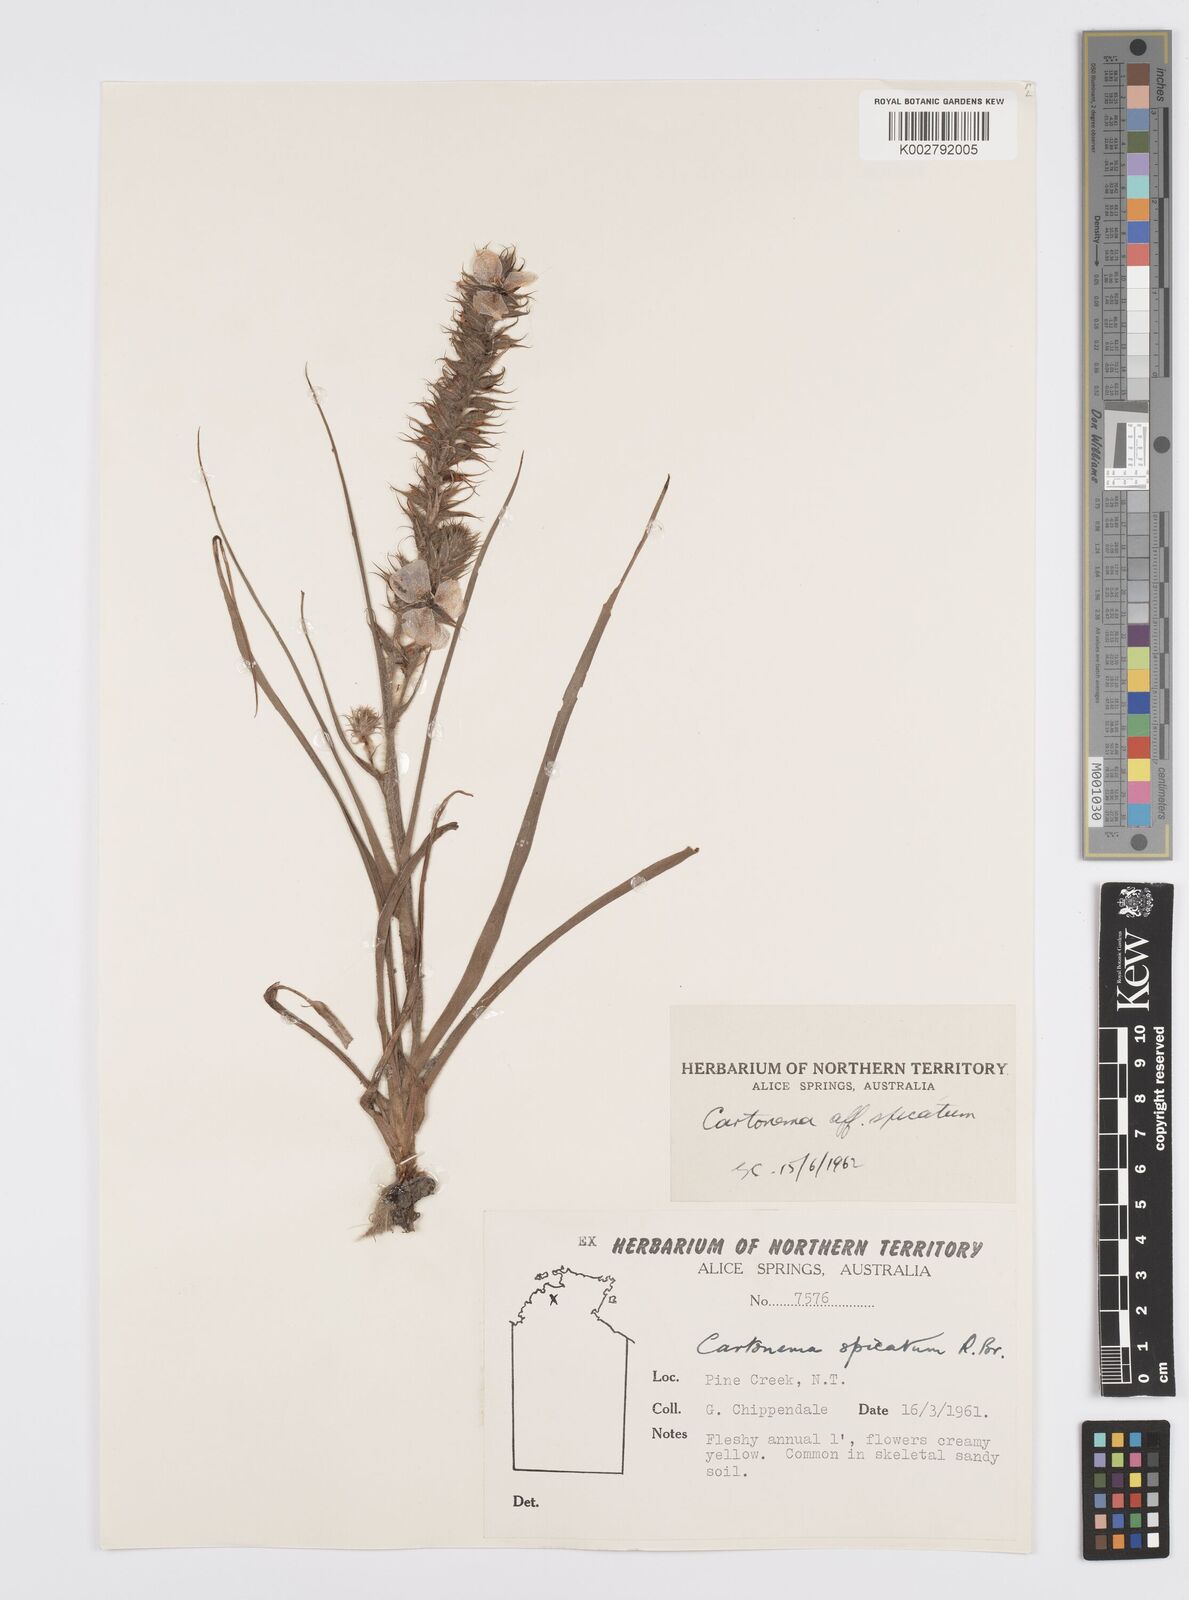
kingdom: Plantae
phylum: Tracheophyta
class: Liliopsida
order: Commelinales
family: Commelinaceae
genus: Cartonema
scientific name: Cartonema spicatum
